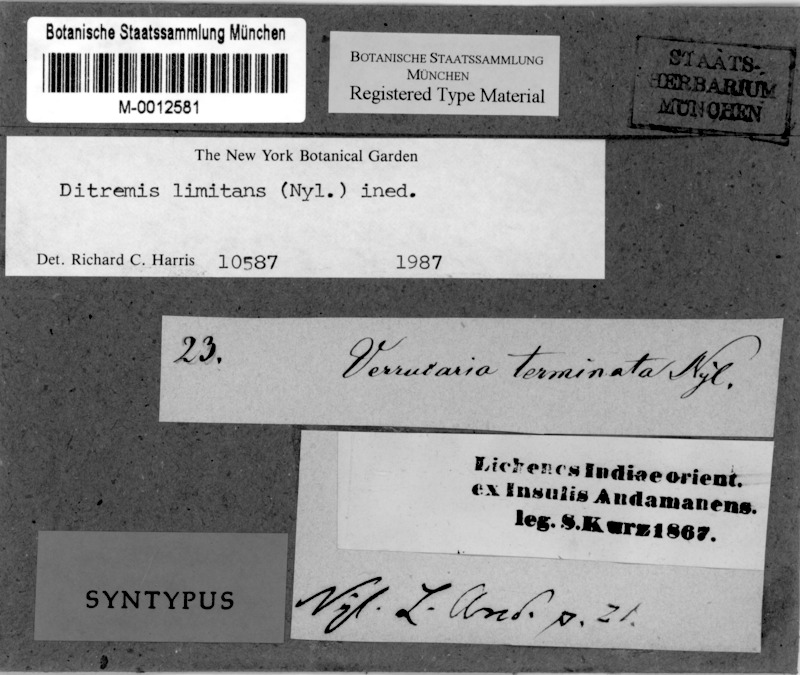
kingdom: Fungi
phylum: Ascomycota
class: Dothideomycetes
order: Monoblastiales
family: Monoblastiaceae
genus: Anisomeridium
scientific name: Anisomeridium terminatum
